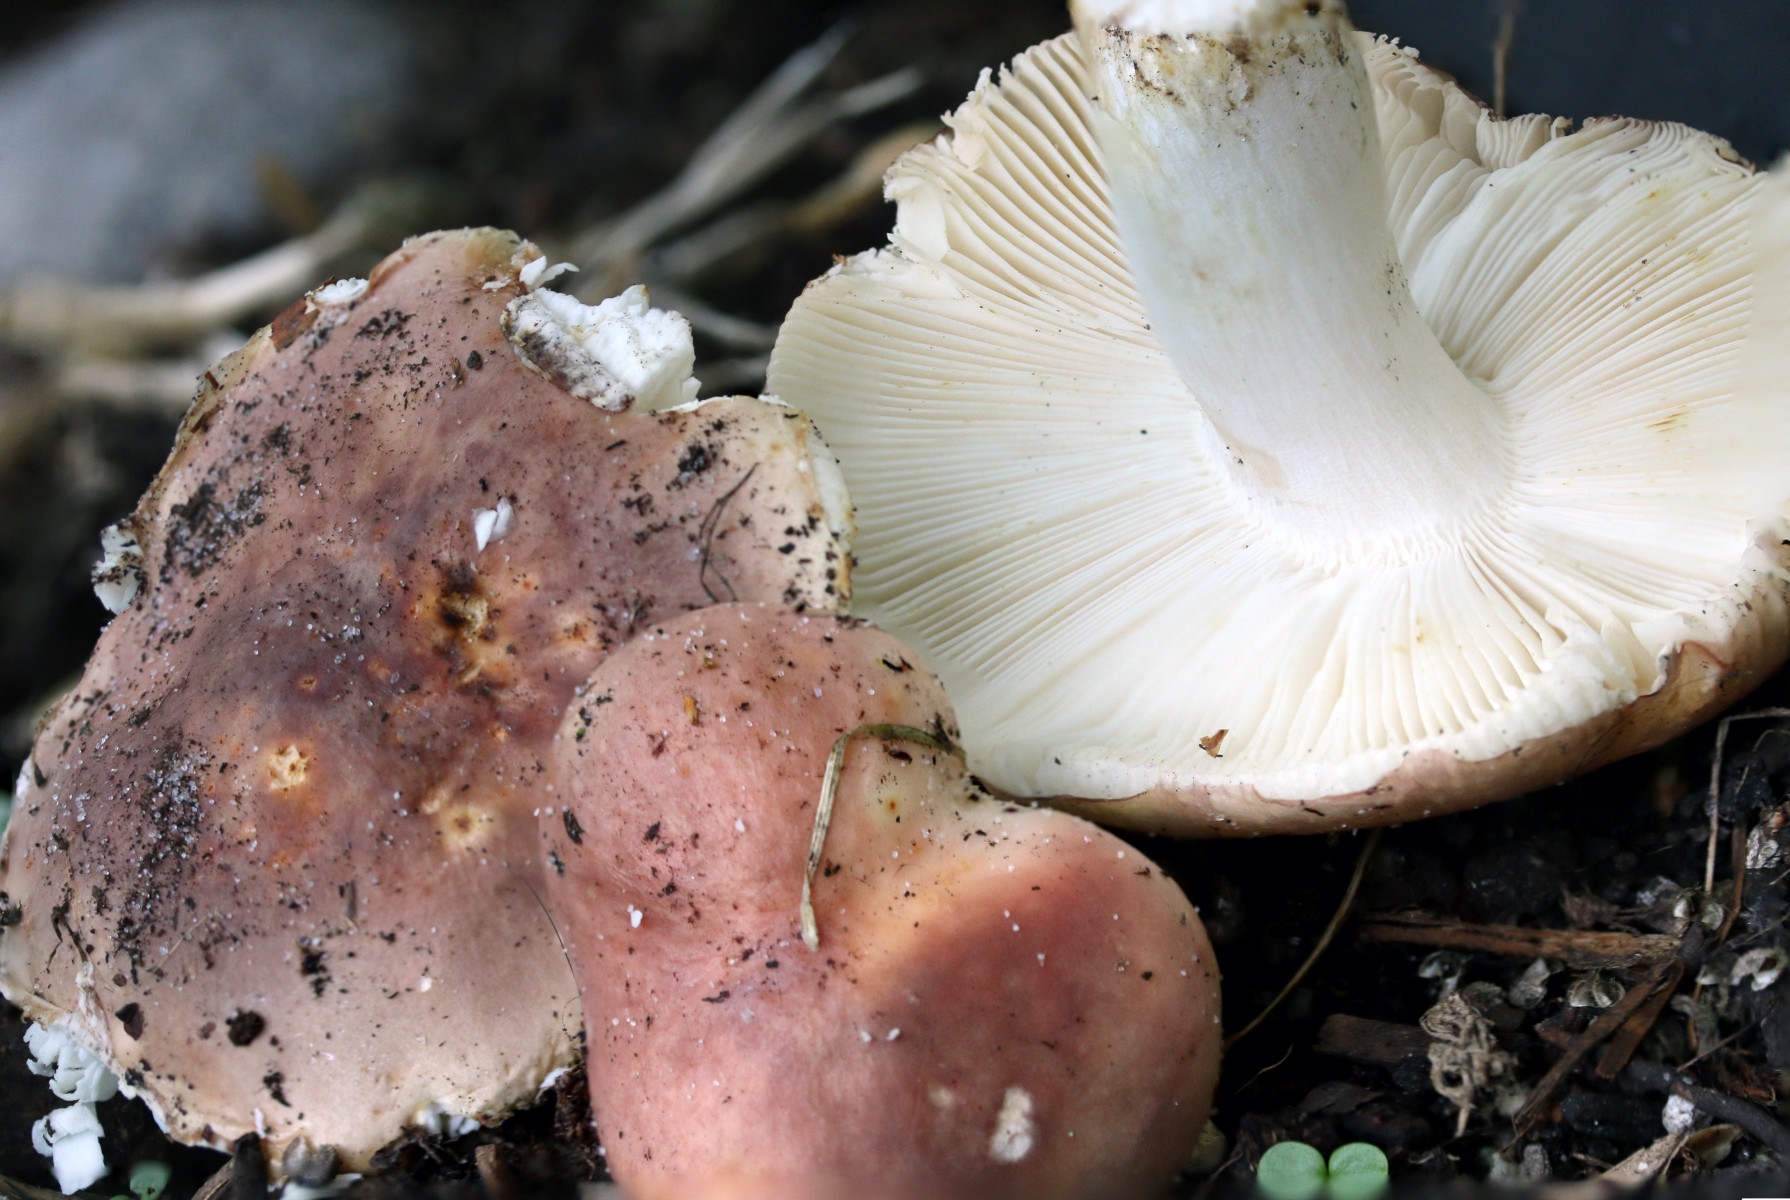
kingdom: Fungi
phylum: Basidiomycota
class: Agaricomycetes
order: Russulales
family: Russulaceae
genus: Russula
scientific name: Russula vesca
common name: spiselig skørhat
